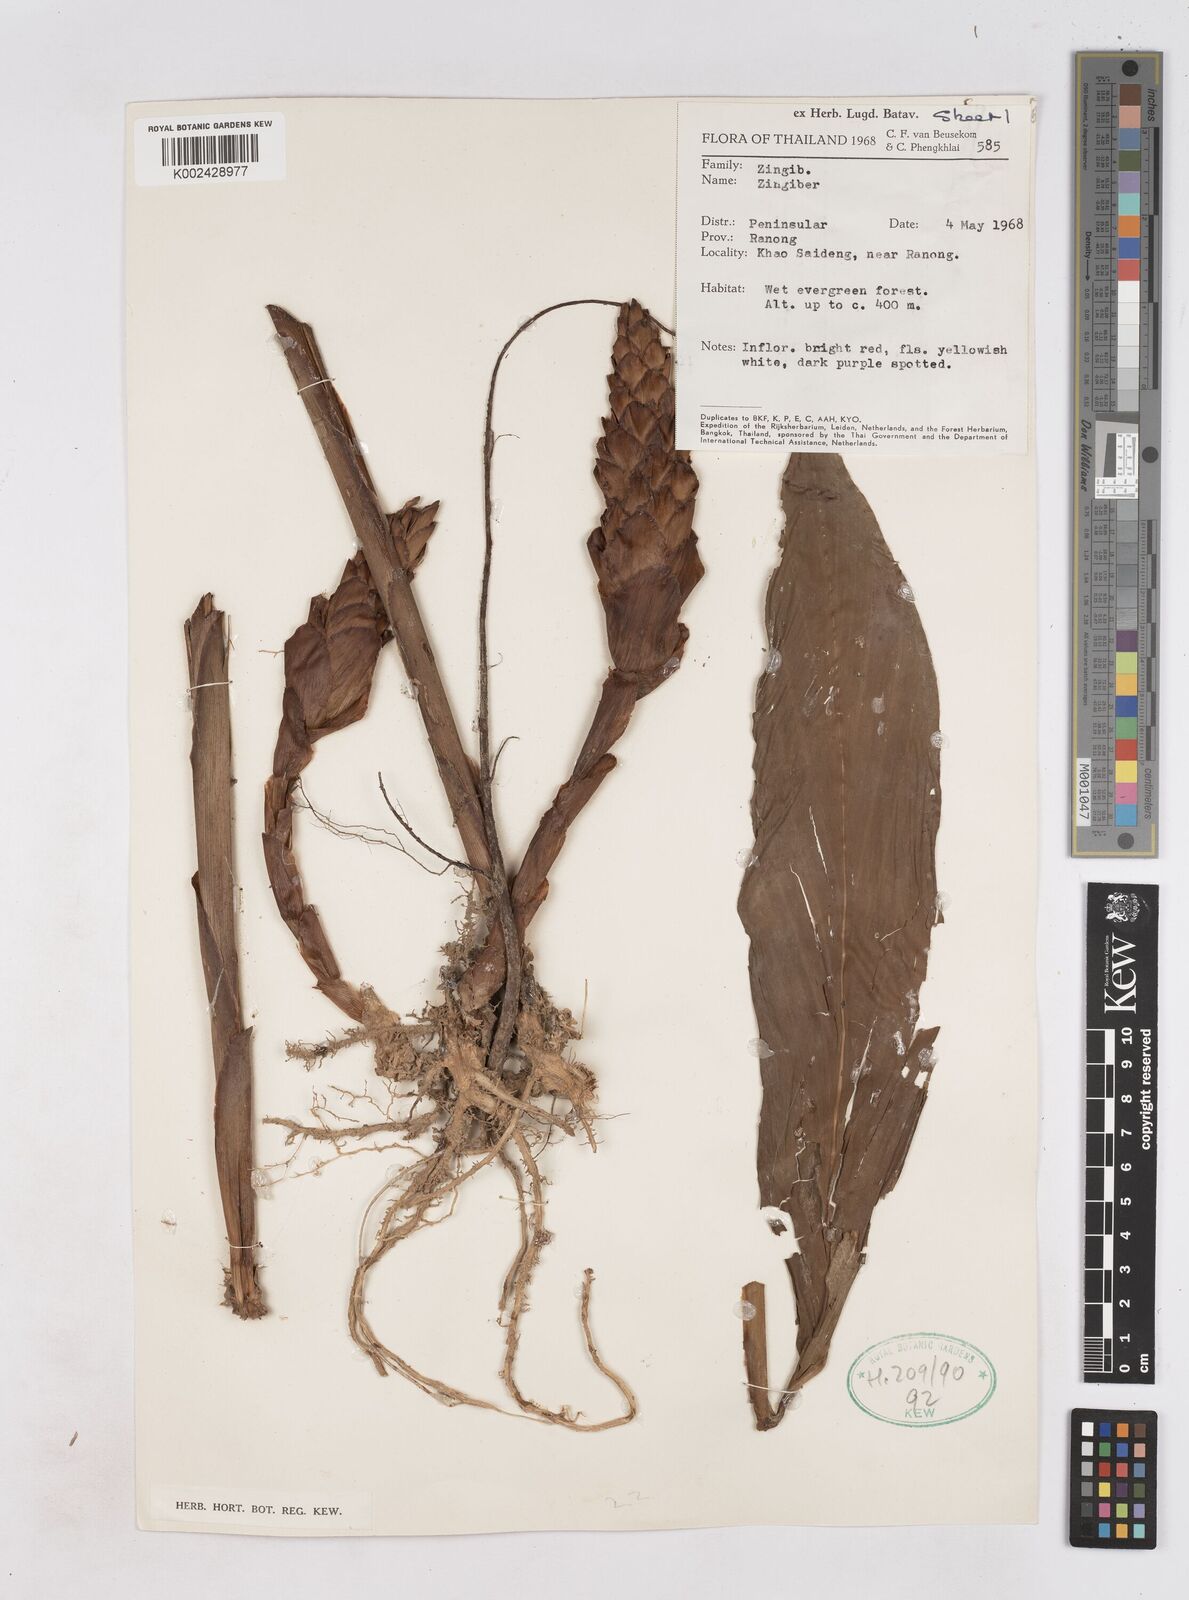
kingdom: Plantae
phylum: Tracheophyta
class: Liliopsida
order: Zingiberales
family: Zingiberaceae
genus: Zingiber
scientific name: Zingiber
